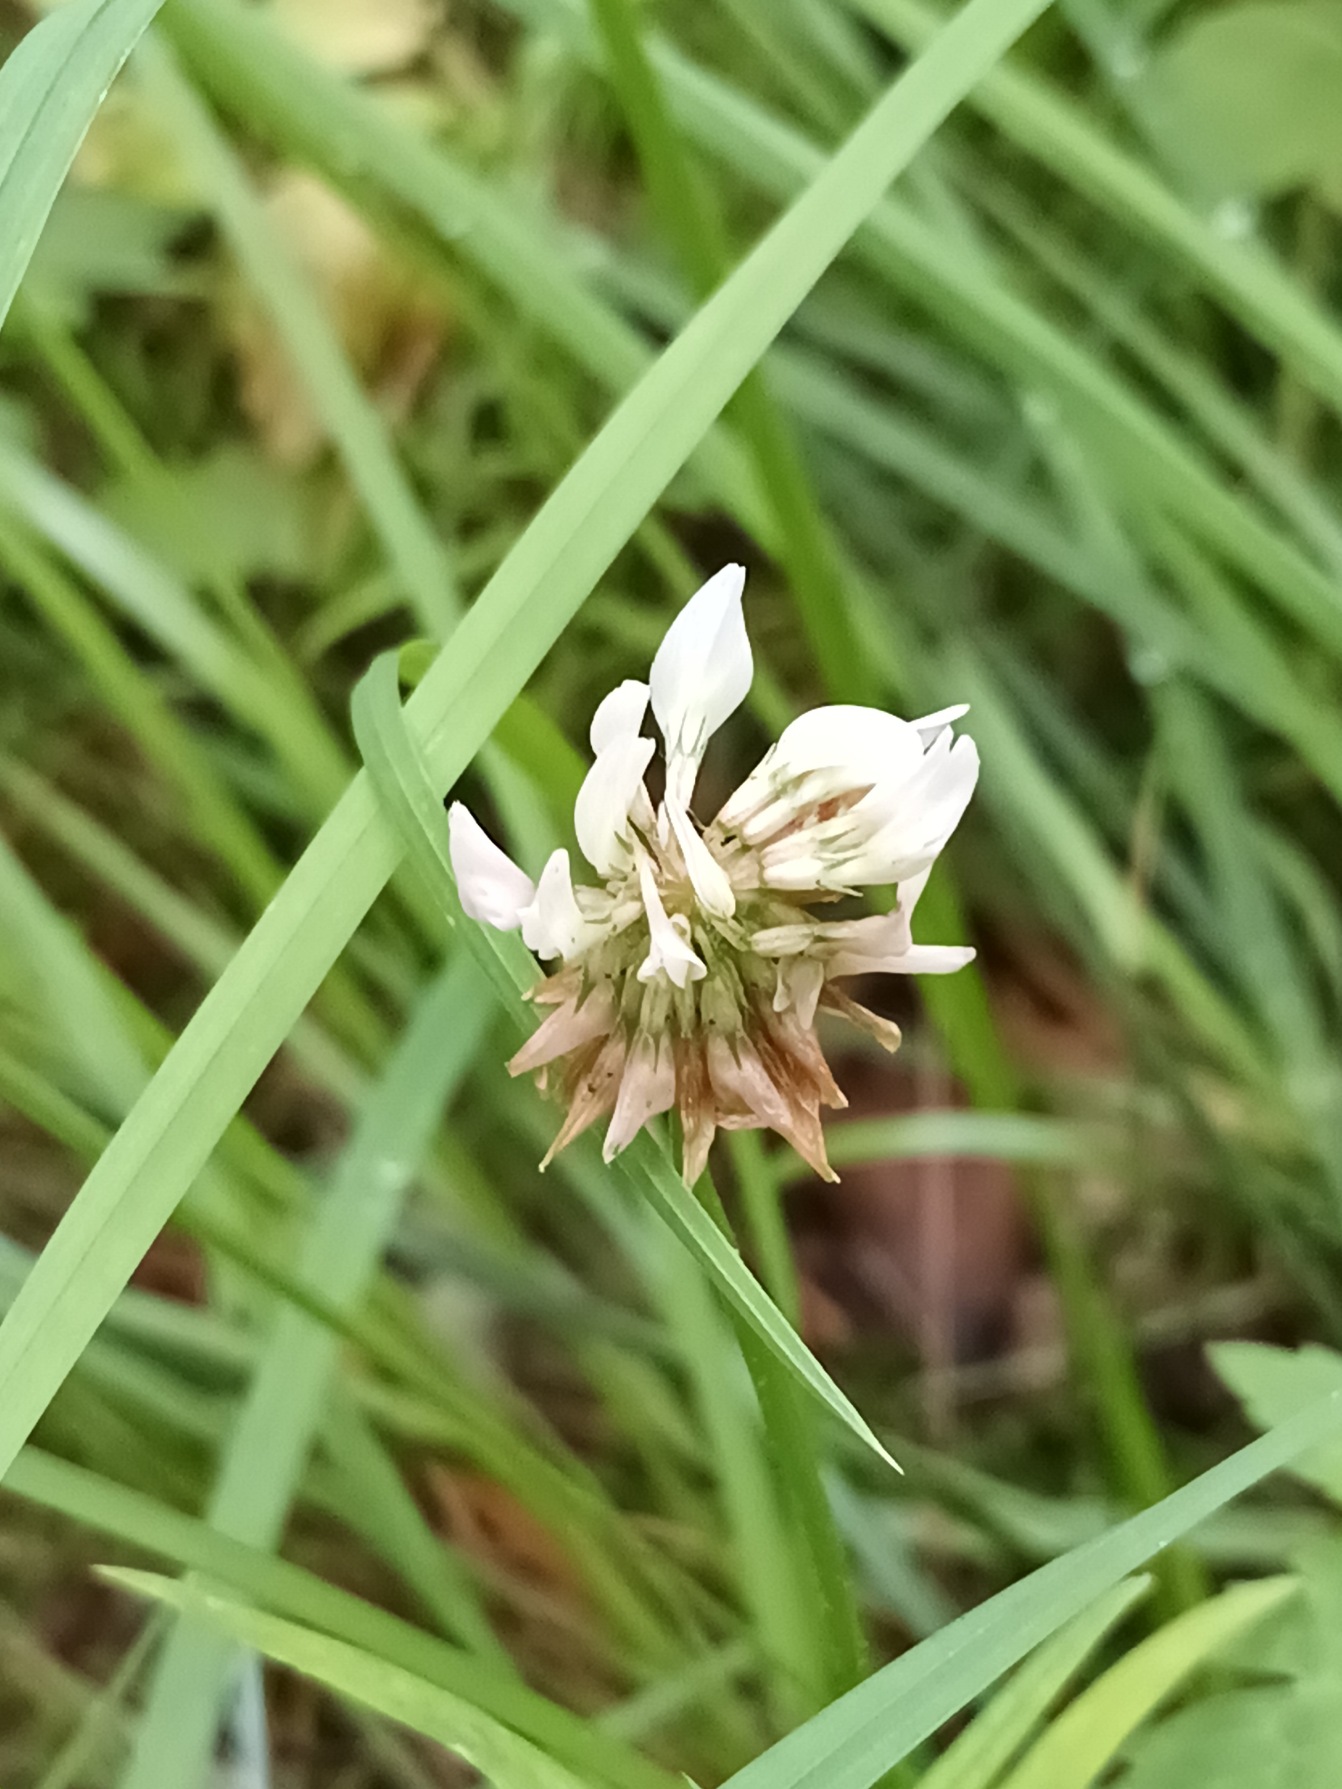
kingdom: Plantae
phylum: Tracheophyta
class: Magnoliopsida
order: Fabales
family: Fabaceae
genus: Trifolium
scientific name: Trifolium repens
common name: Hvid-kløver
